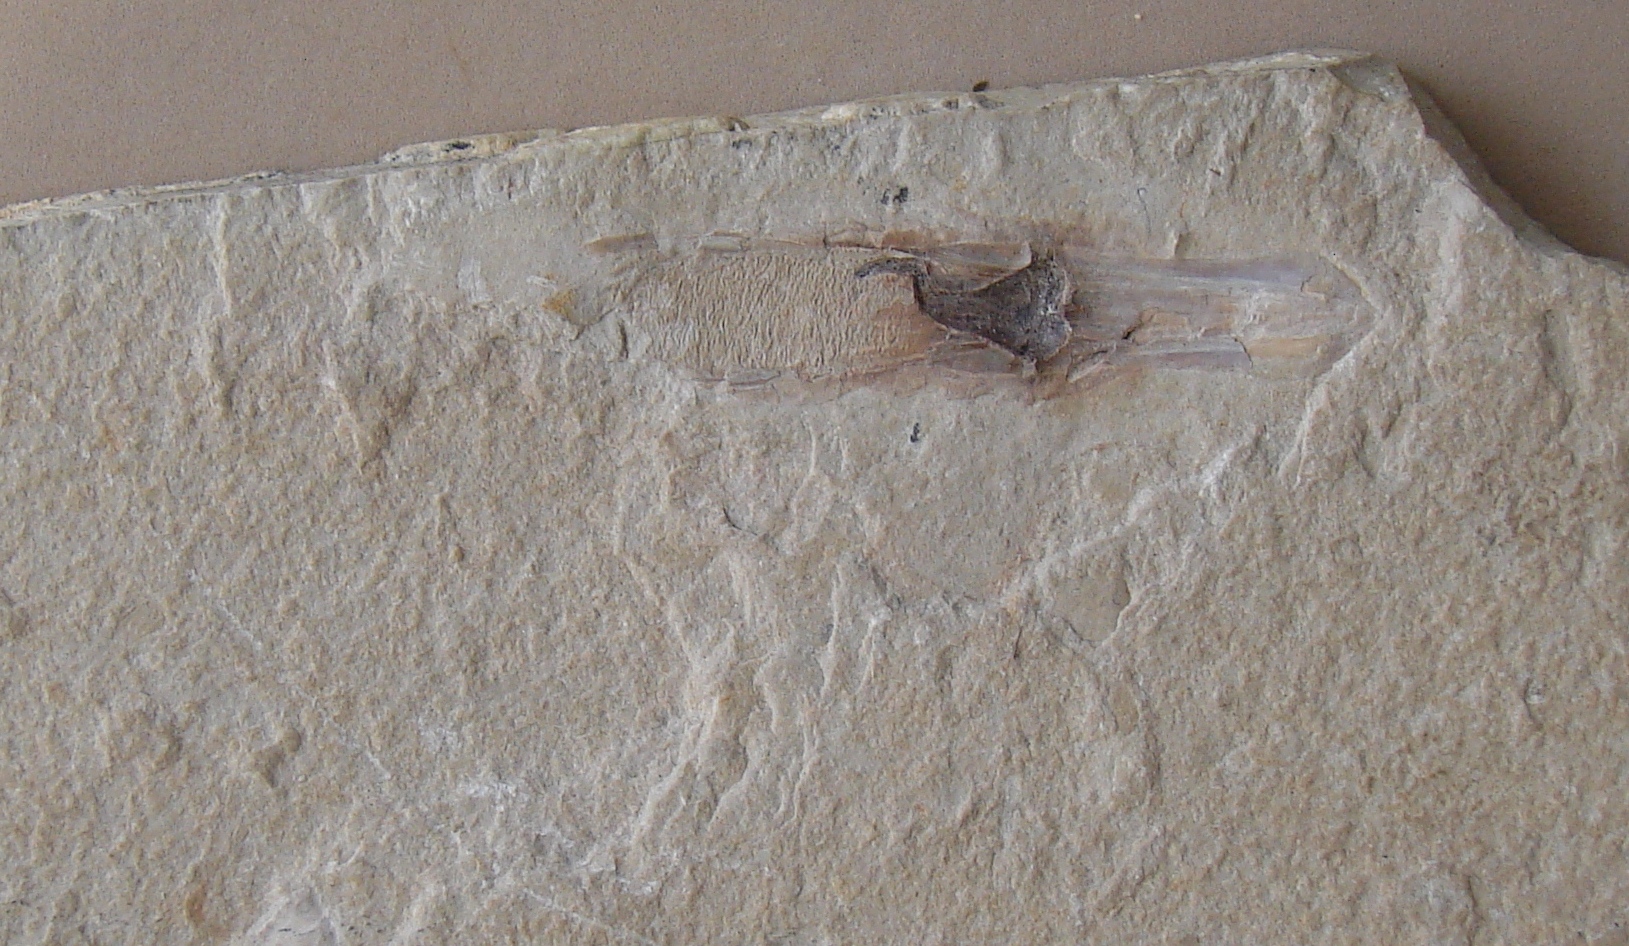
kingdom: Animalia
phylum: Mollusca
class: Cephalopoda
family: Plesioteuthididae
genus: Boreopeltis
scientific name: Boreopeltis smithi
